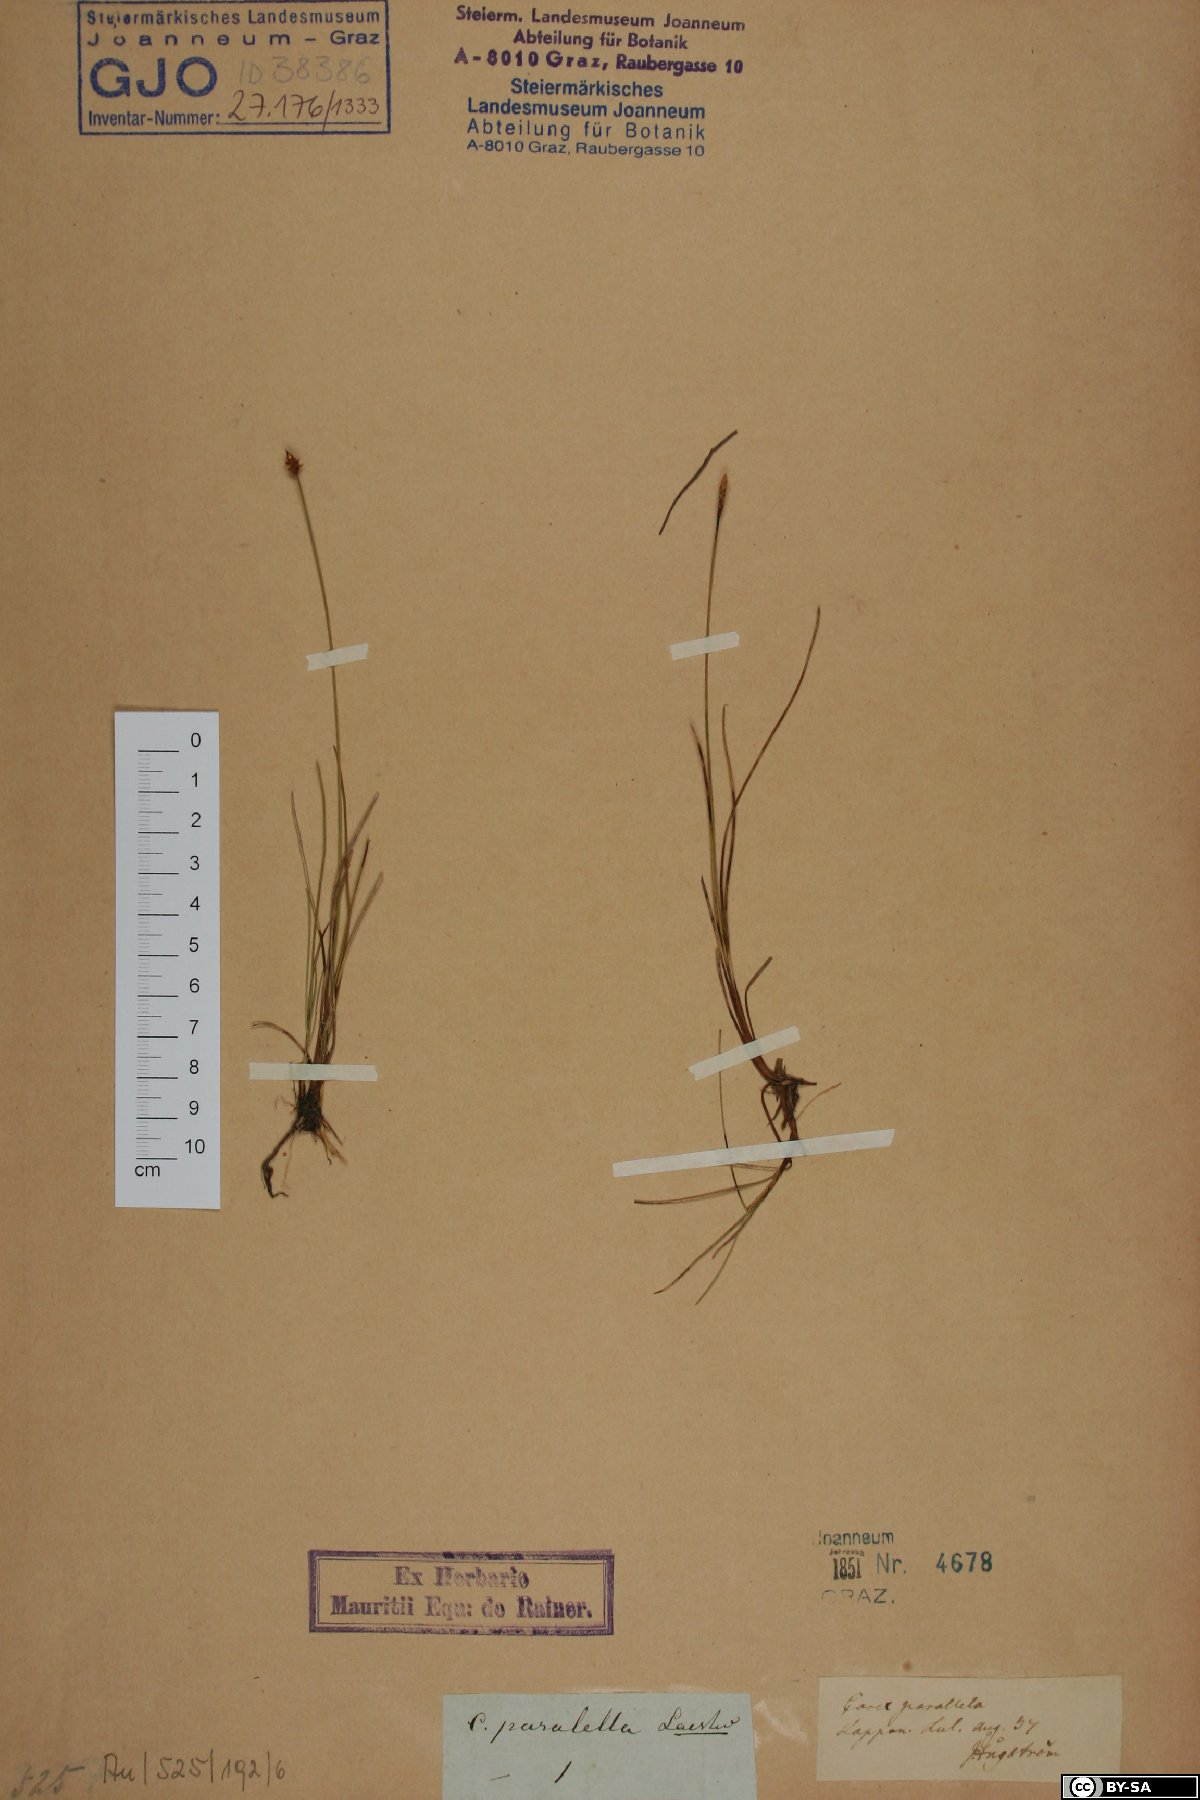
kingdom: Plantae
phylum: Tracheophyta
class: Liliopsida
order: Poales
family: Cyperaceae
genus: Carex
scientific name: Carex parallela
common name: Parallel sedge
